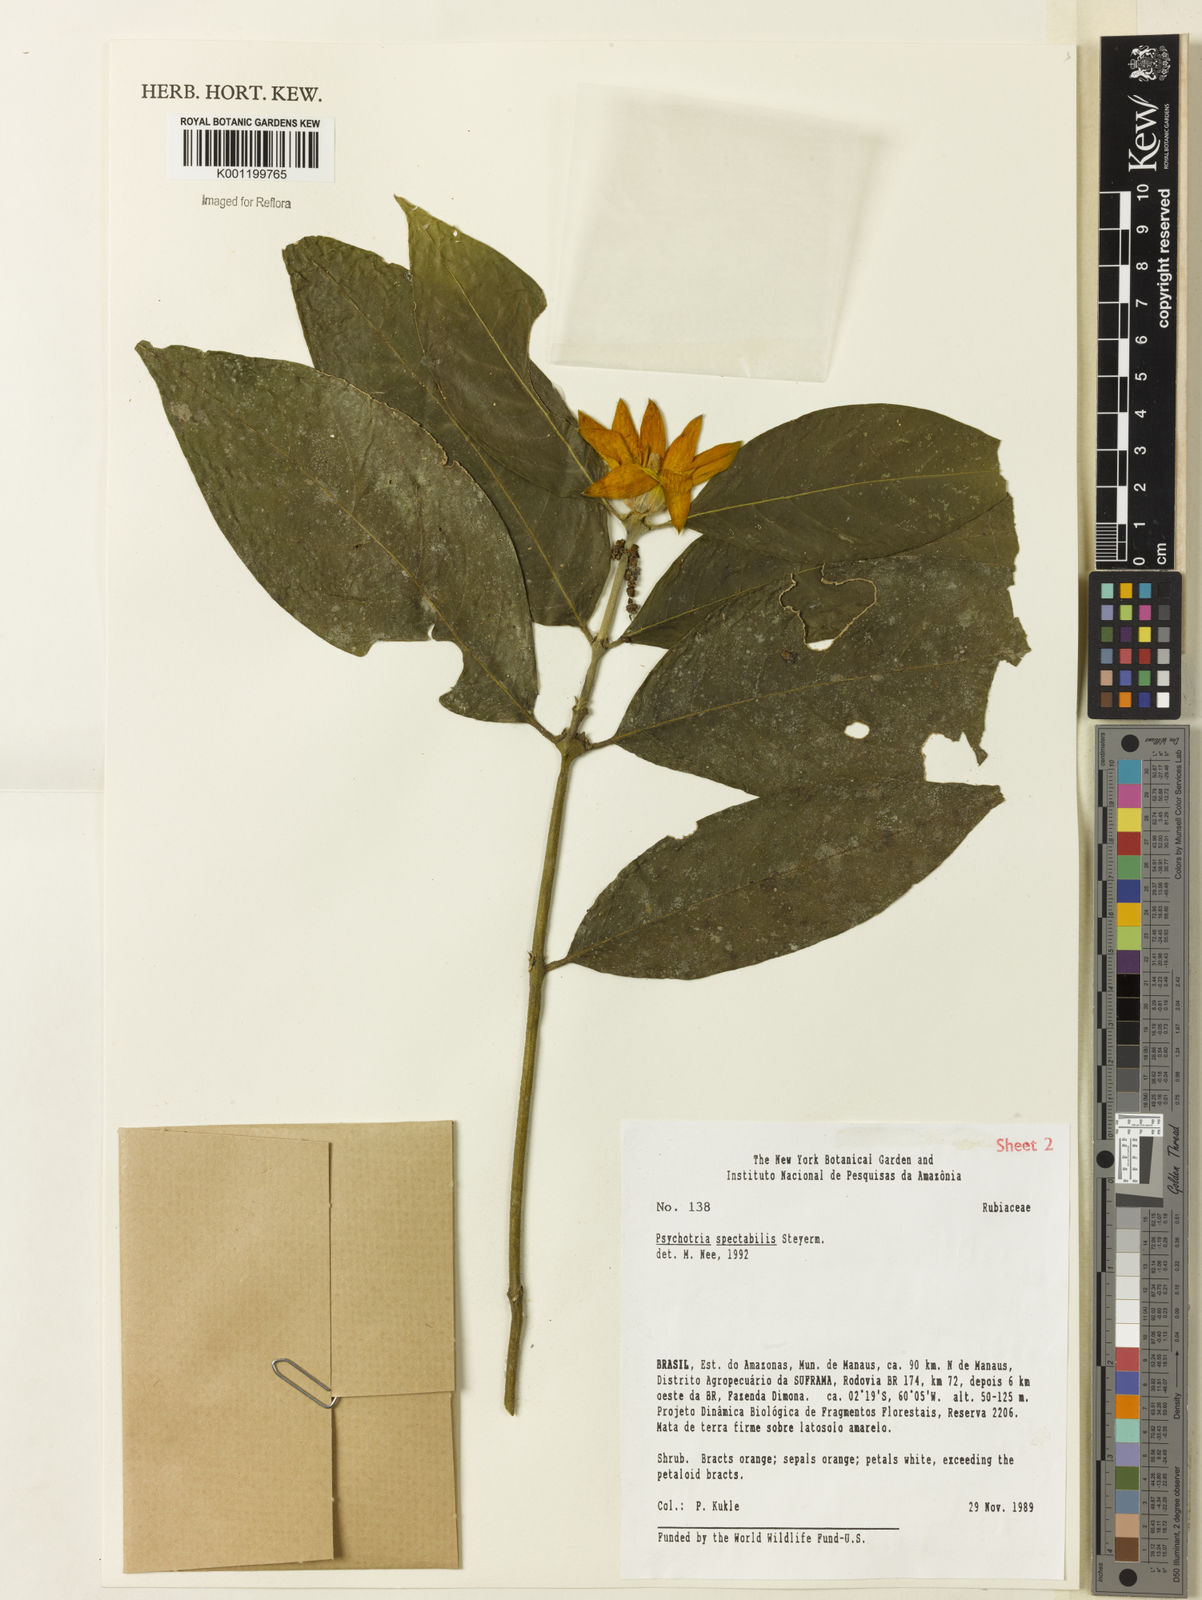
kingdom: Plantae
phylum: Tracheophyta
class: Magnoliopsida
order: Gentianales
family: Rubiaceae
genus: Palicourea
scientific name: Palicourea spectabilis
